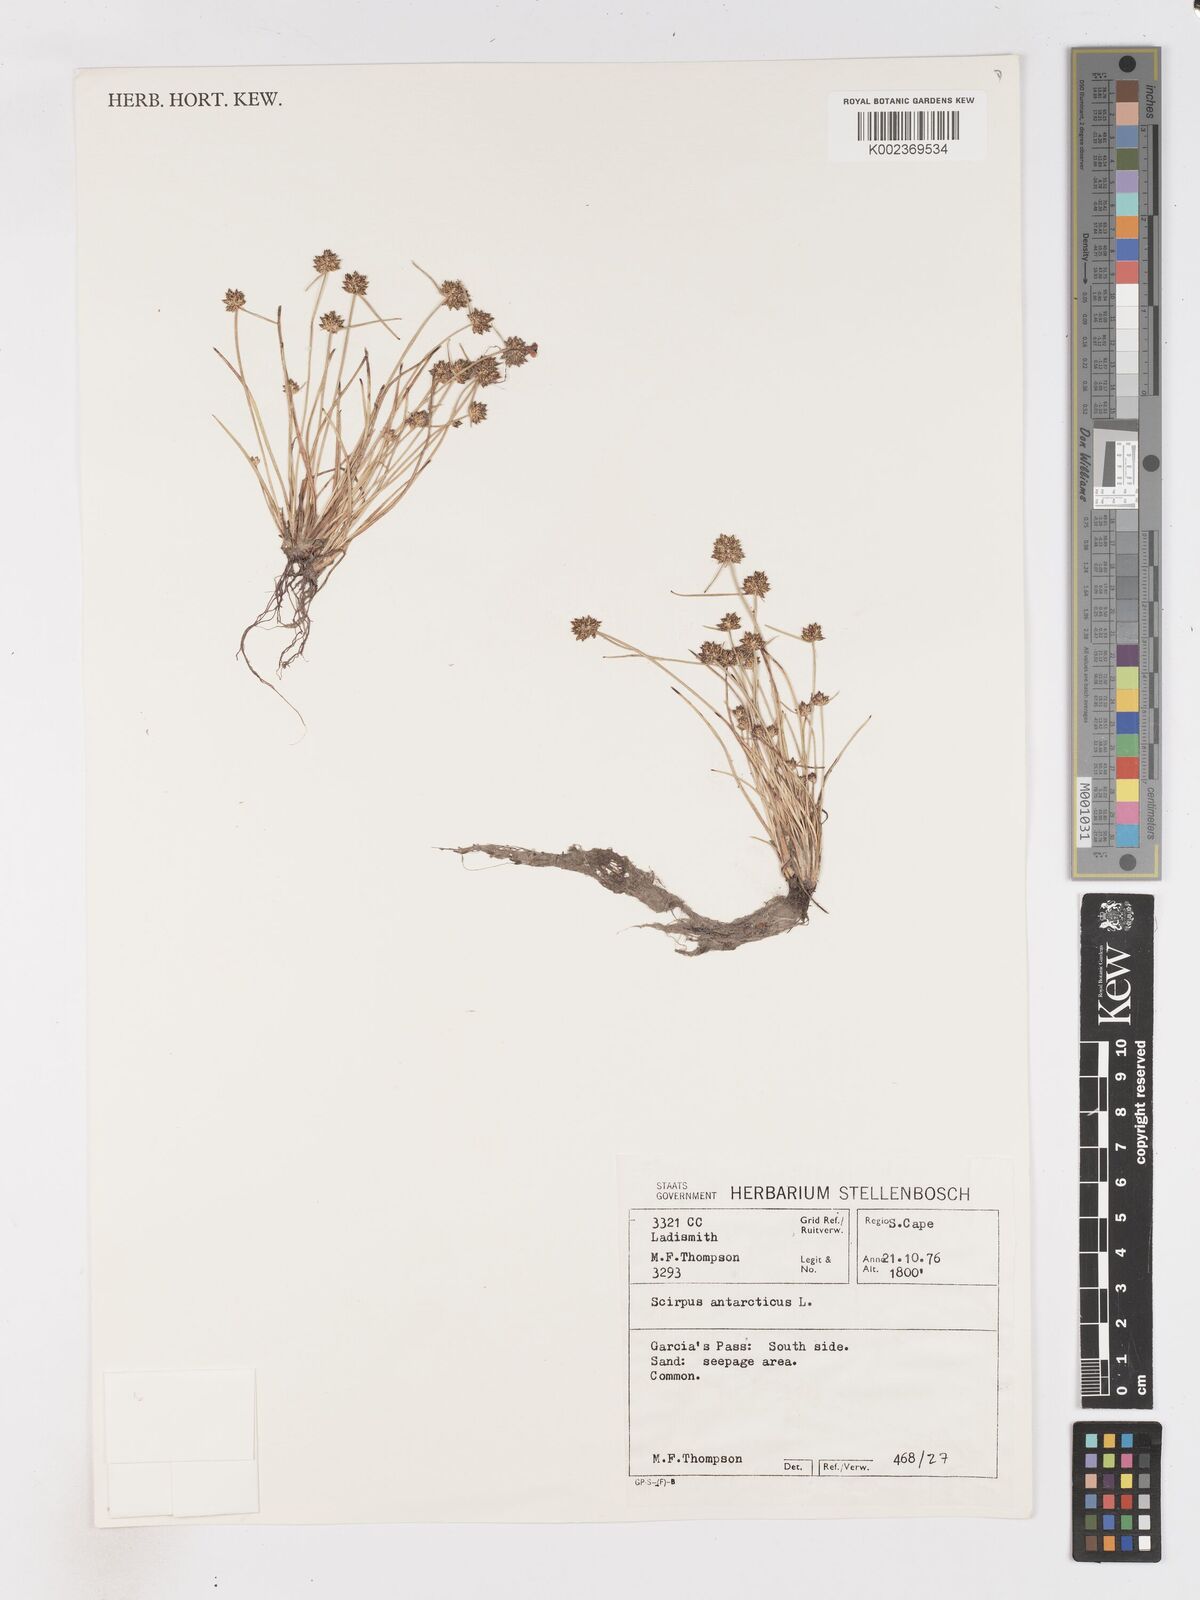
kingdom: Plantae
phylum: Tracheophyta
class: Liliopsida
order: Poales
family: Cyperaceae
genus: Isolepis
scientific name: Isolepis antarctica
